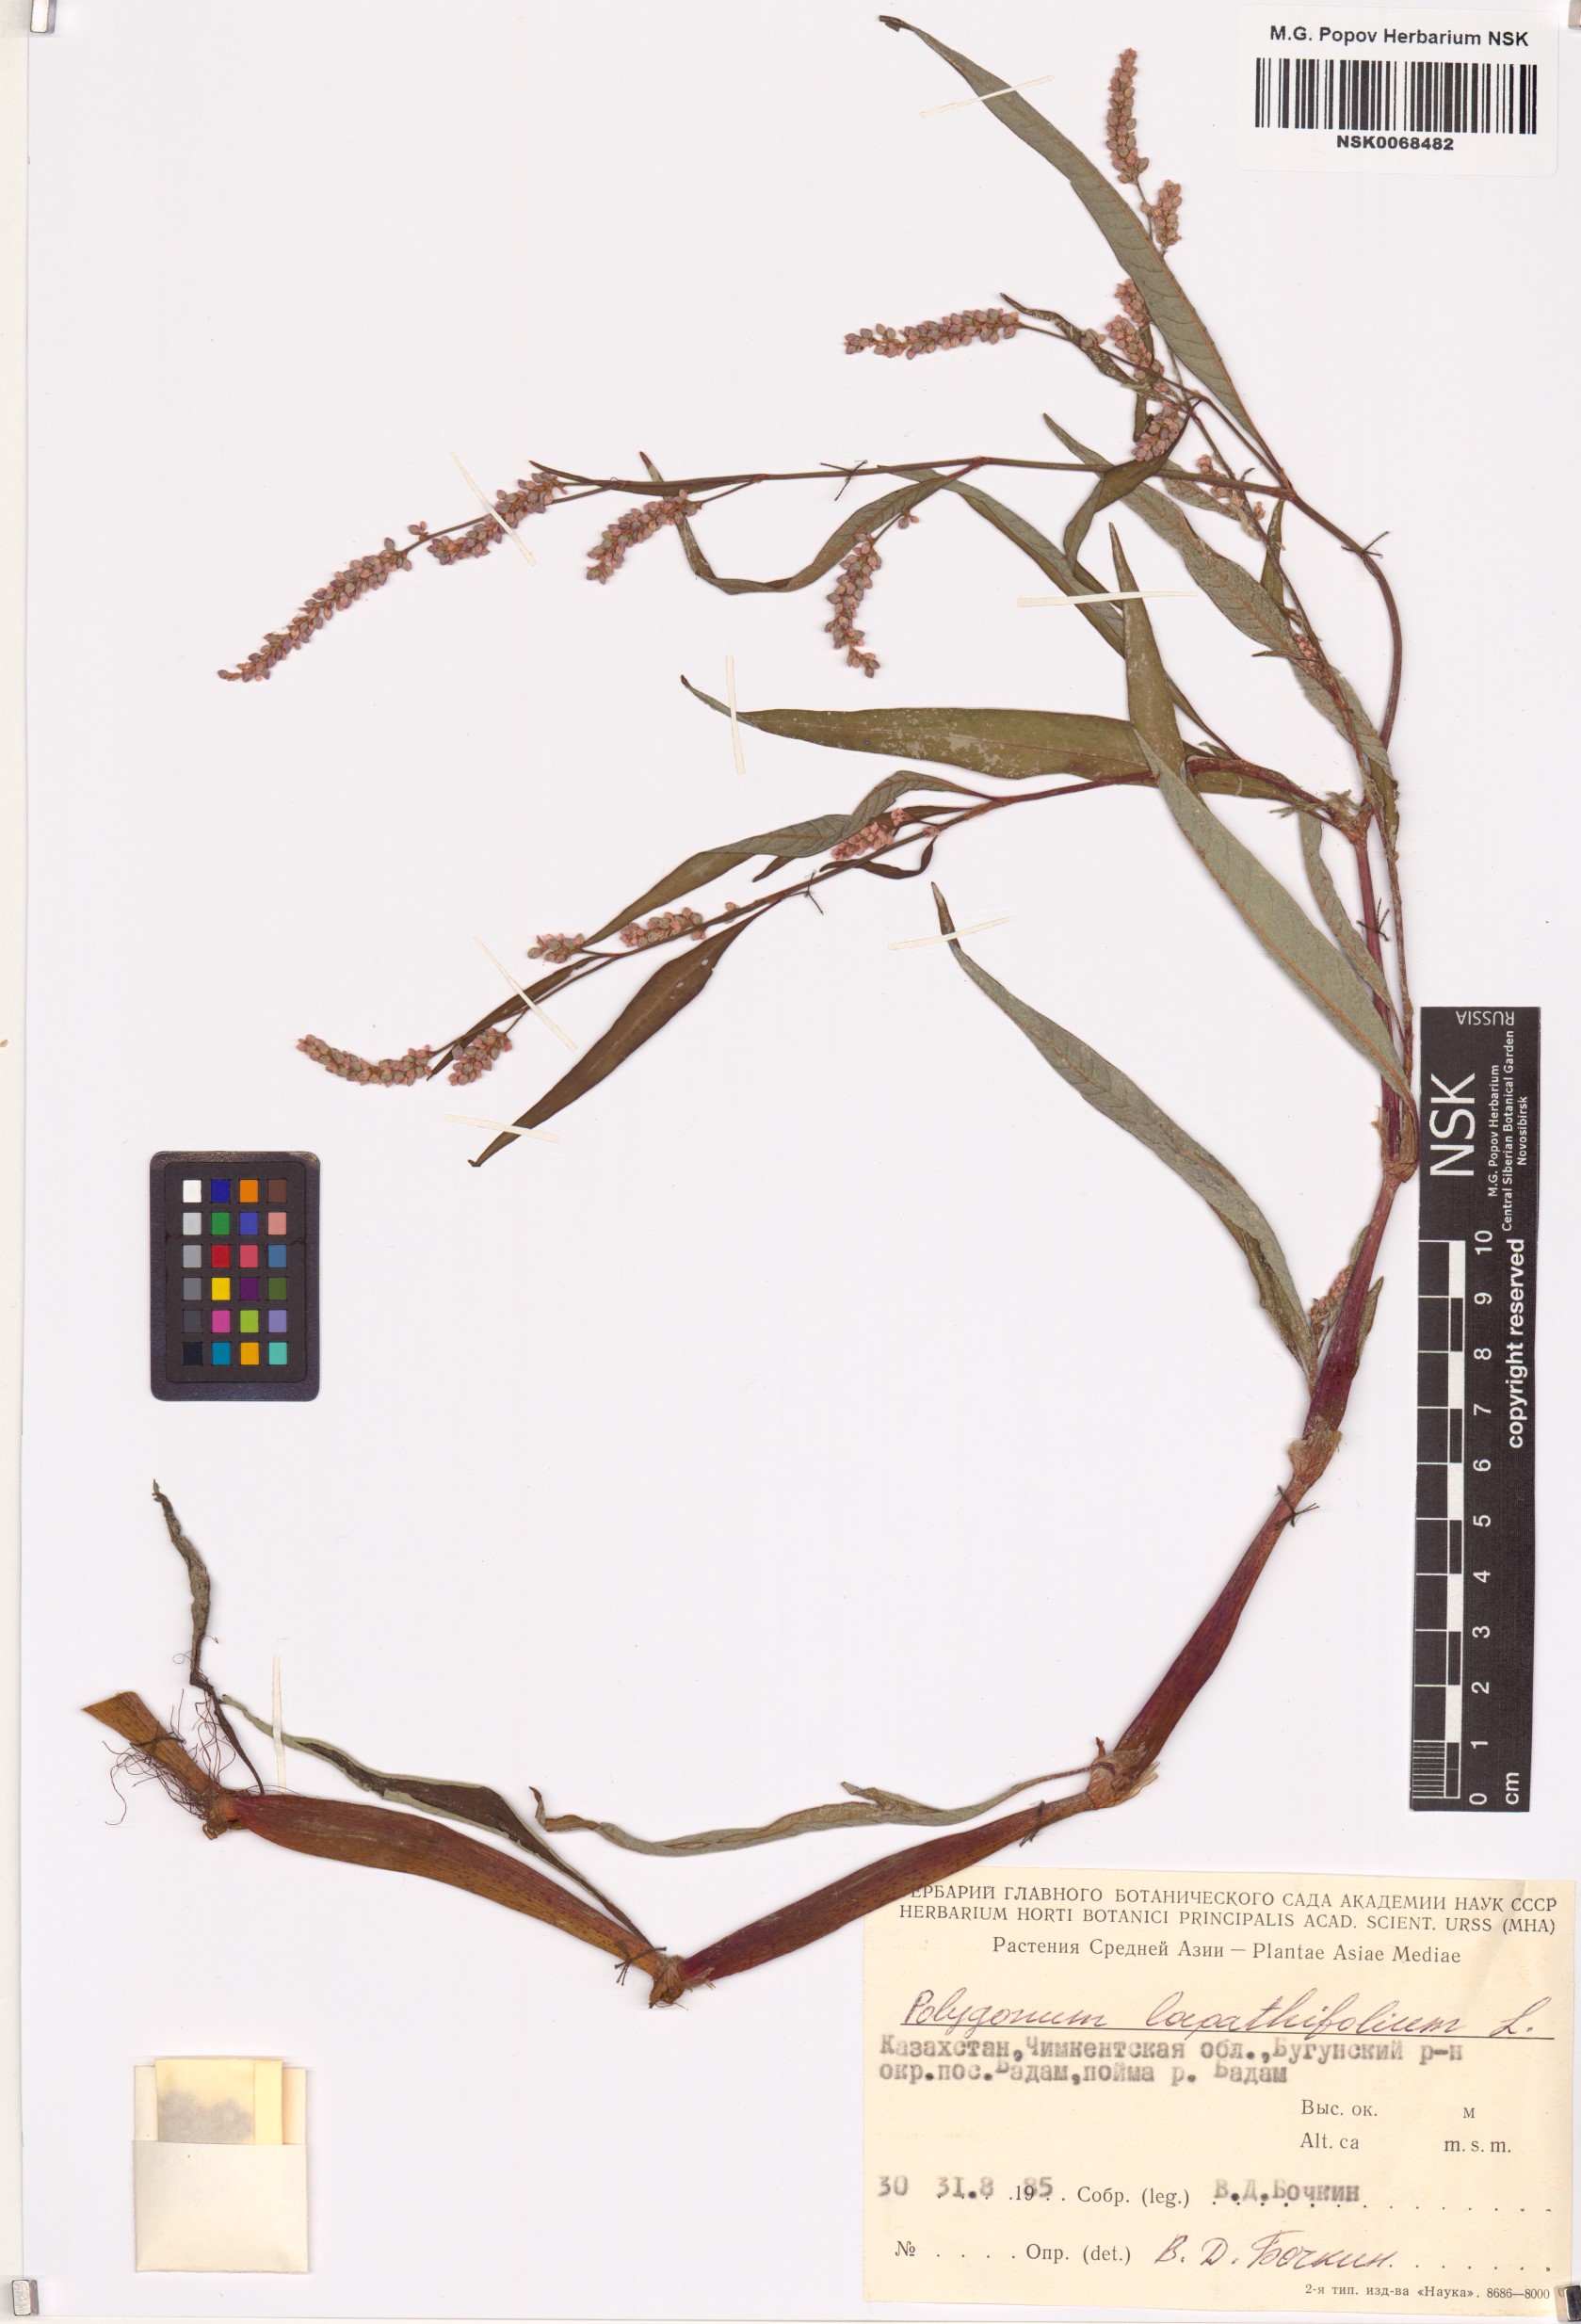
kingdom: Plantae
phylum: Tracheophyta
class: Magnoliopsida
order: Caryophyllales
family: Polygonaceae
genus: Persicaria
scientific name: Persicaria lapathifolia
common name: Curlytop knotweed
